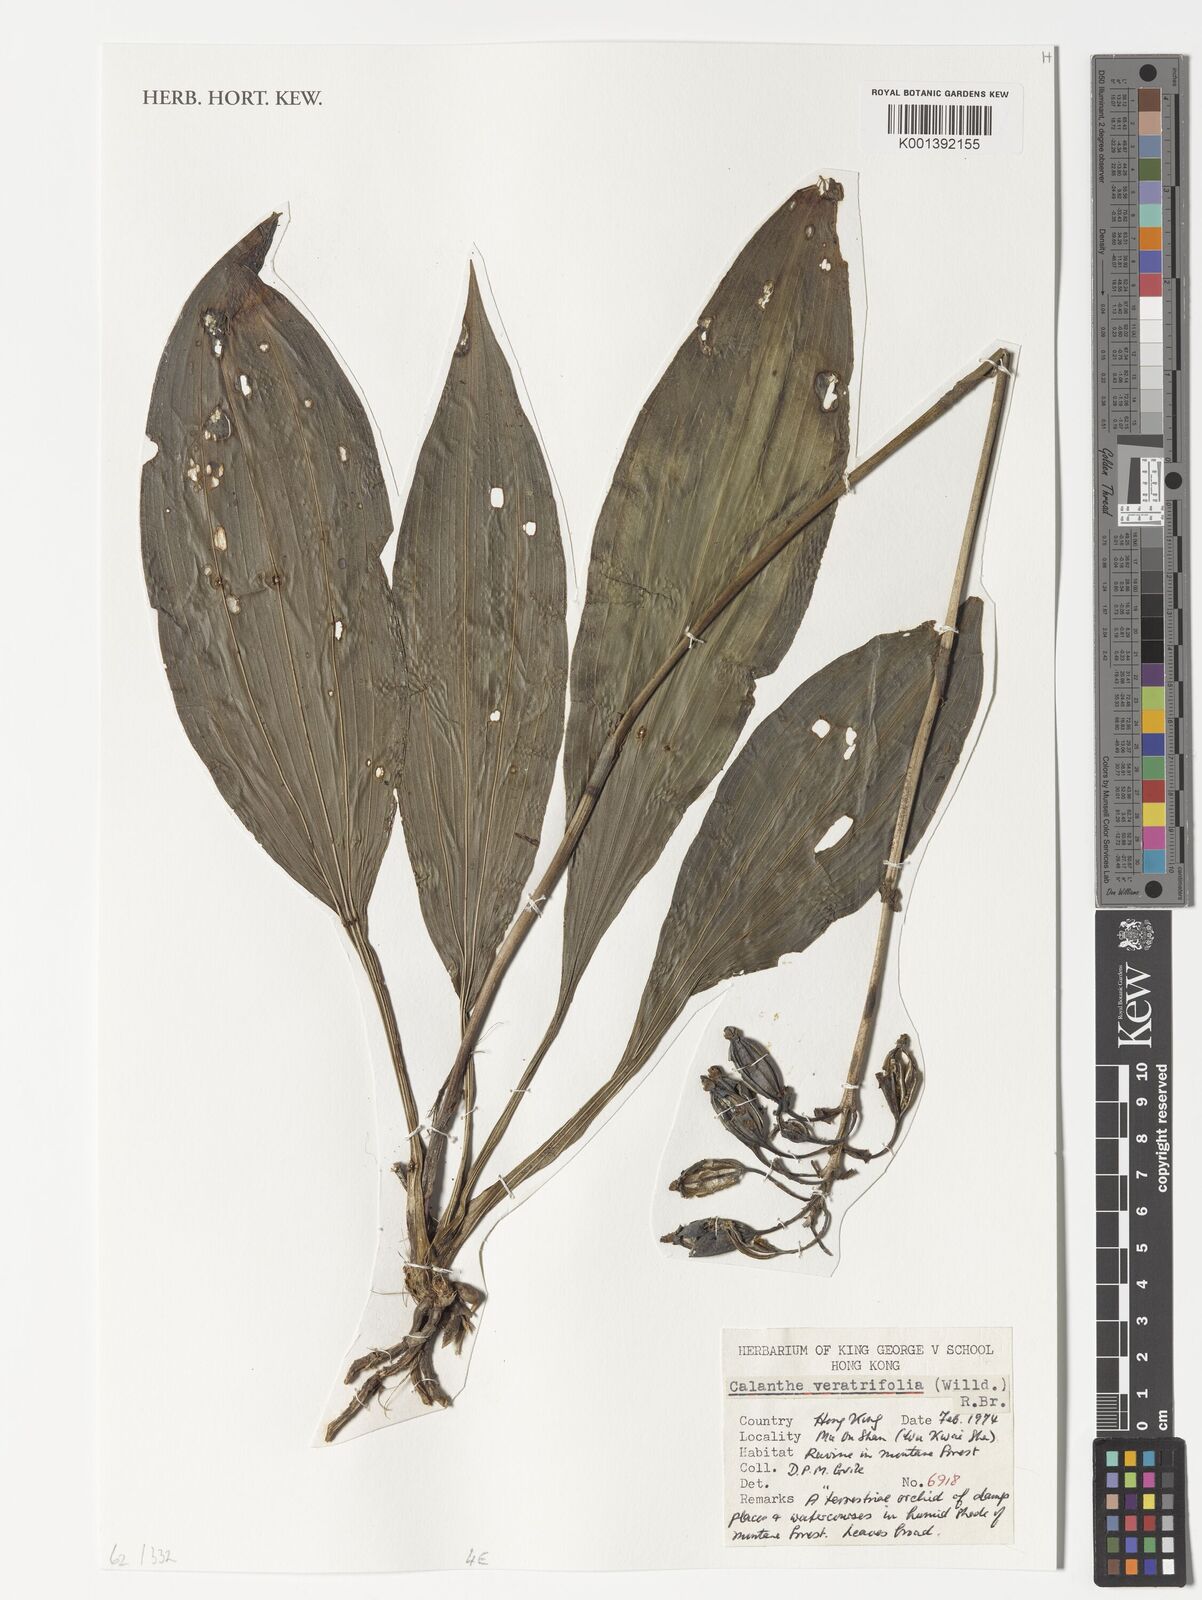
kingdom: Plantae
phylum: Tracheophyta
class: Liliopsida
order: Asparagales
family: Orchidaceae
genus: Calanthe
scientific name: Calanthe
